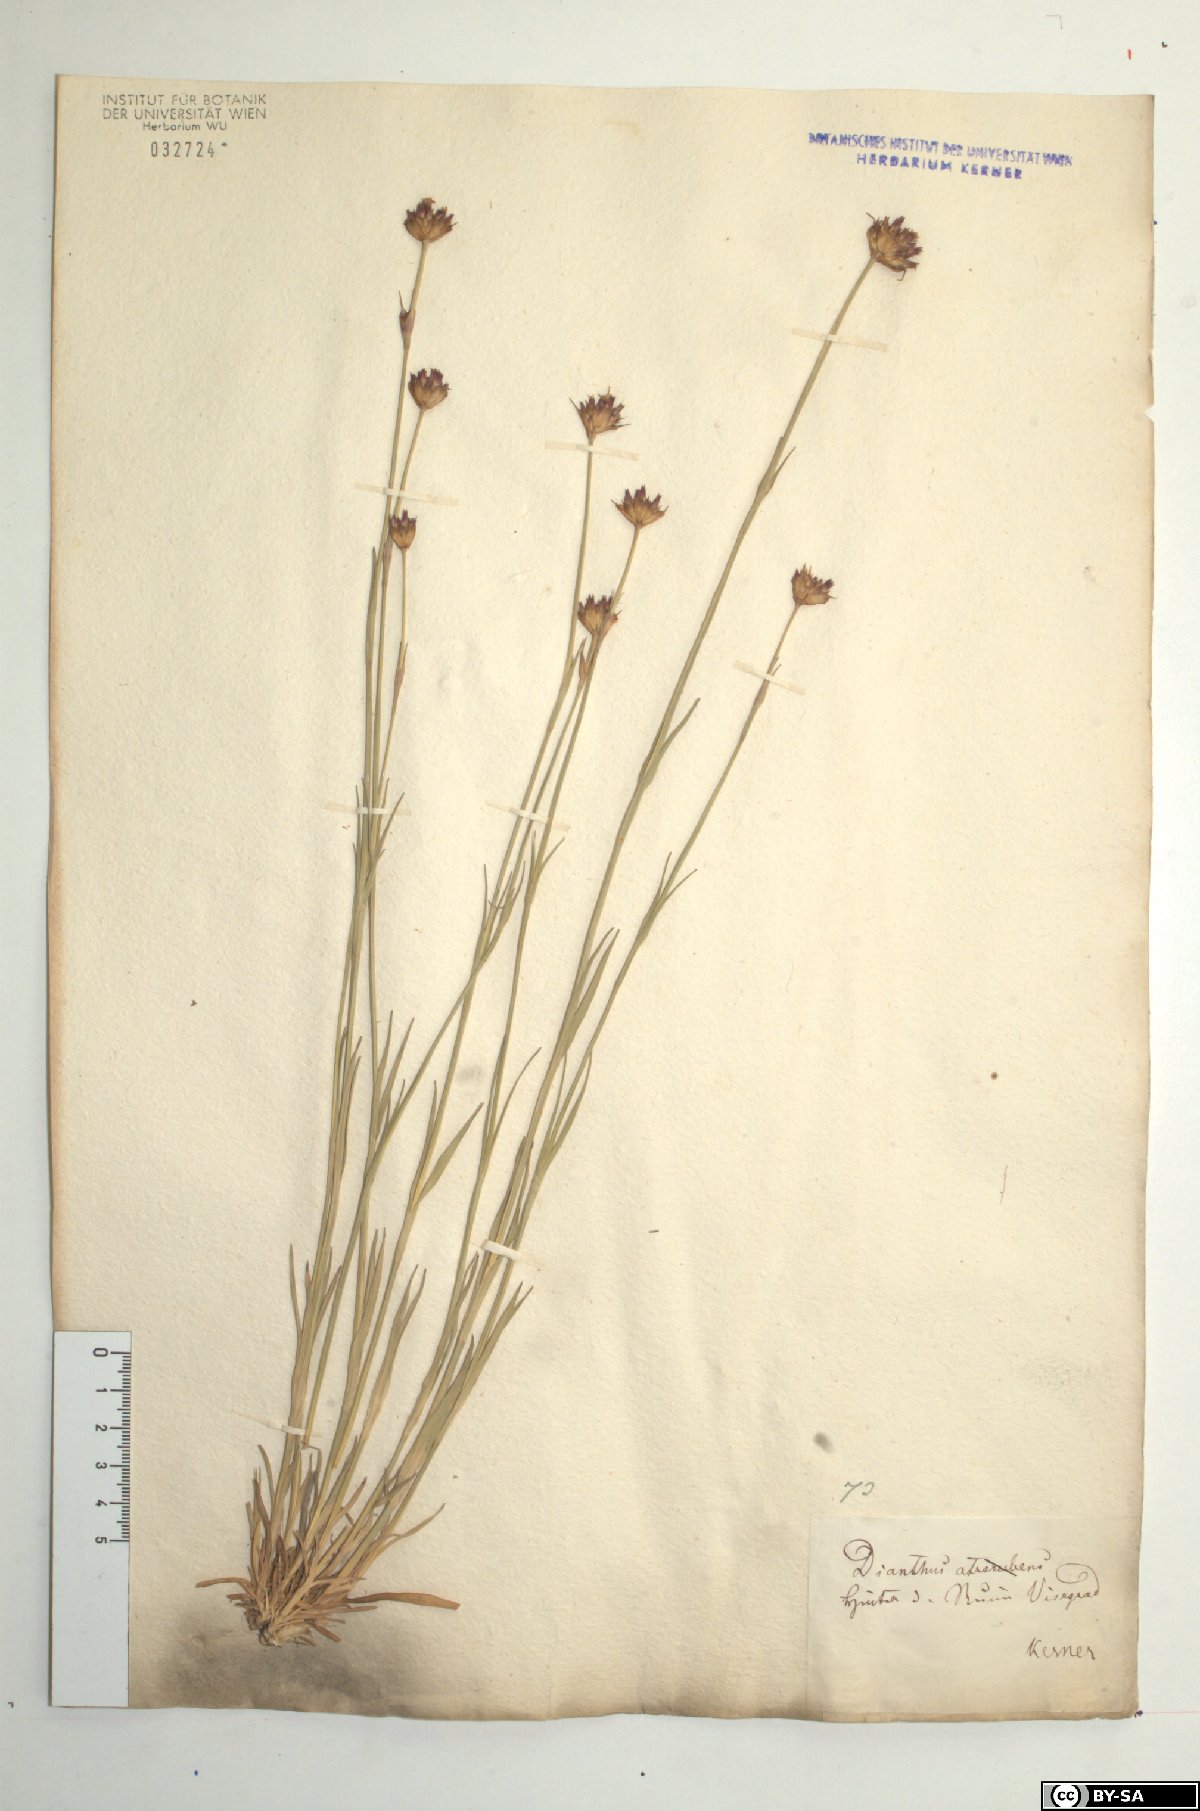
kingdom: Plantae
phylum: Tracheophyta
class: Magnoliopsida
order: Caryophyllales
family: Caryophyllaceae
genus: Dianthus
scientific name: Dianthus pontederae
